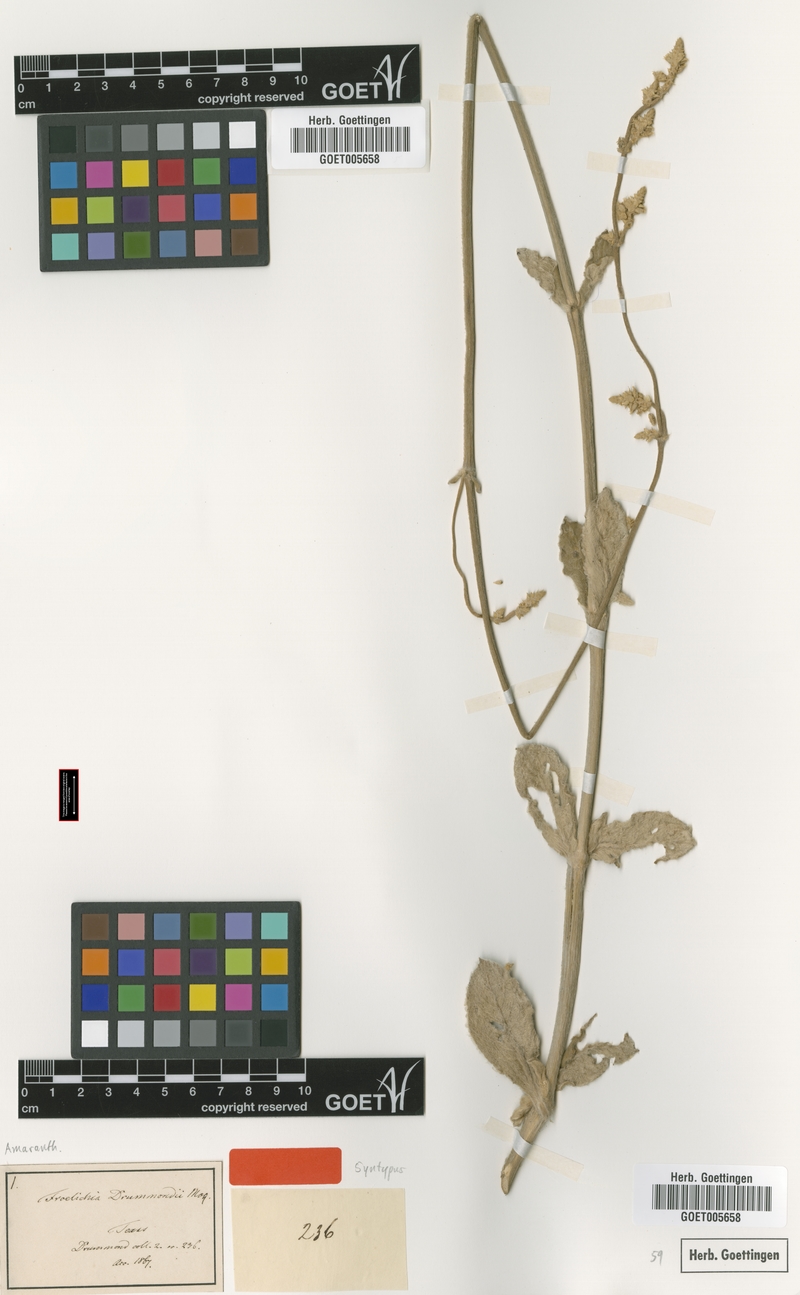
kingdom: Plantae
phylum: Tracheophyta
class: Magnoliopsida
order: Caryophyllales
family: Amaranthaceae
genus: Froelichia
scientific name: Froelichia drummondii
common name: Drummond's snake-cotton
